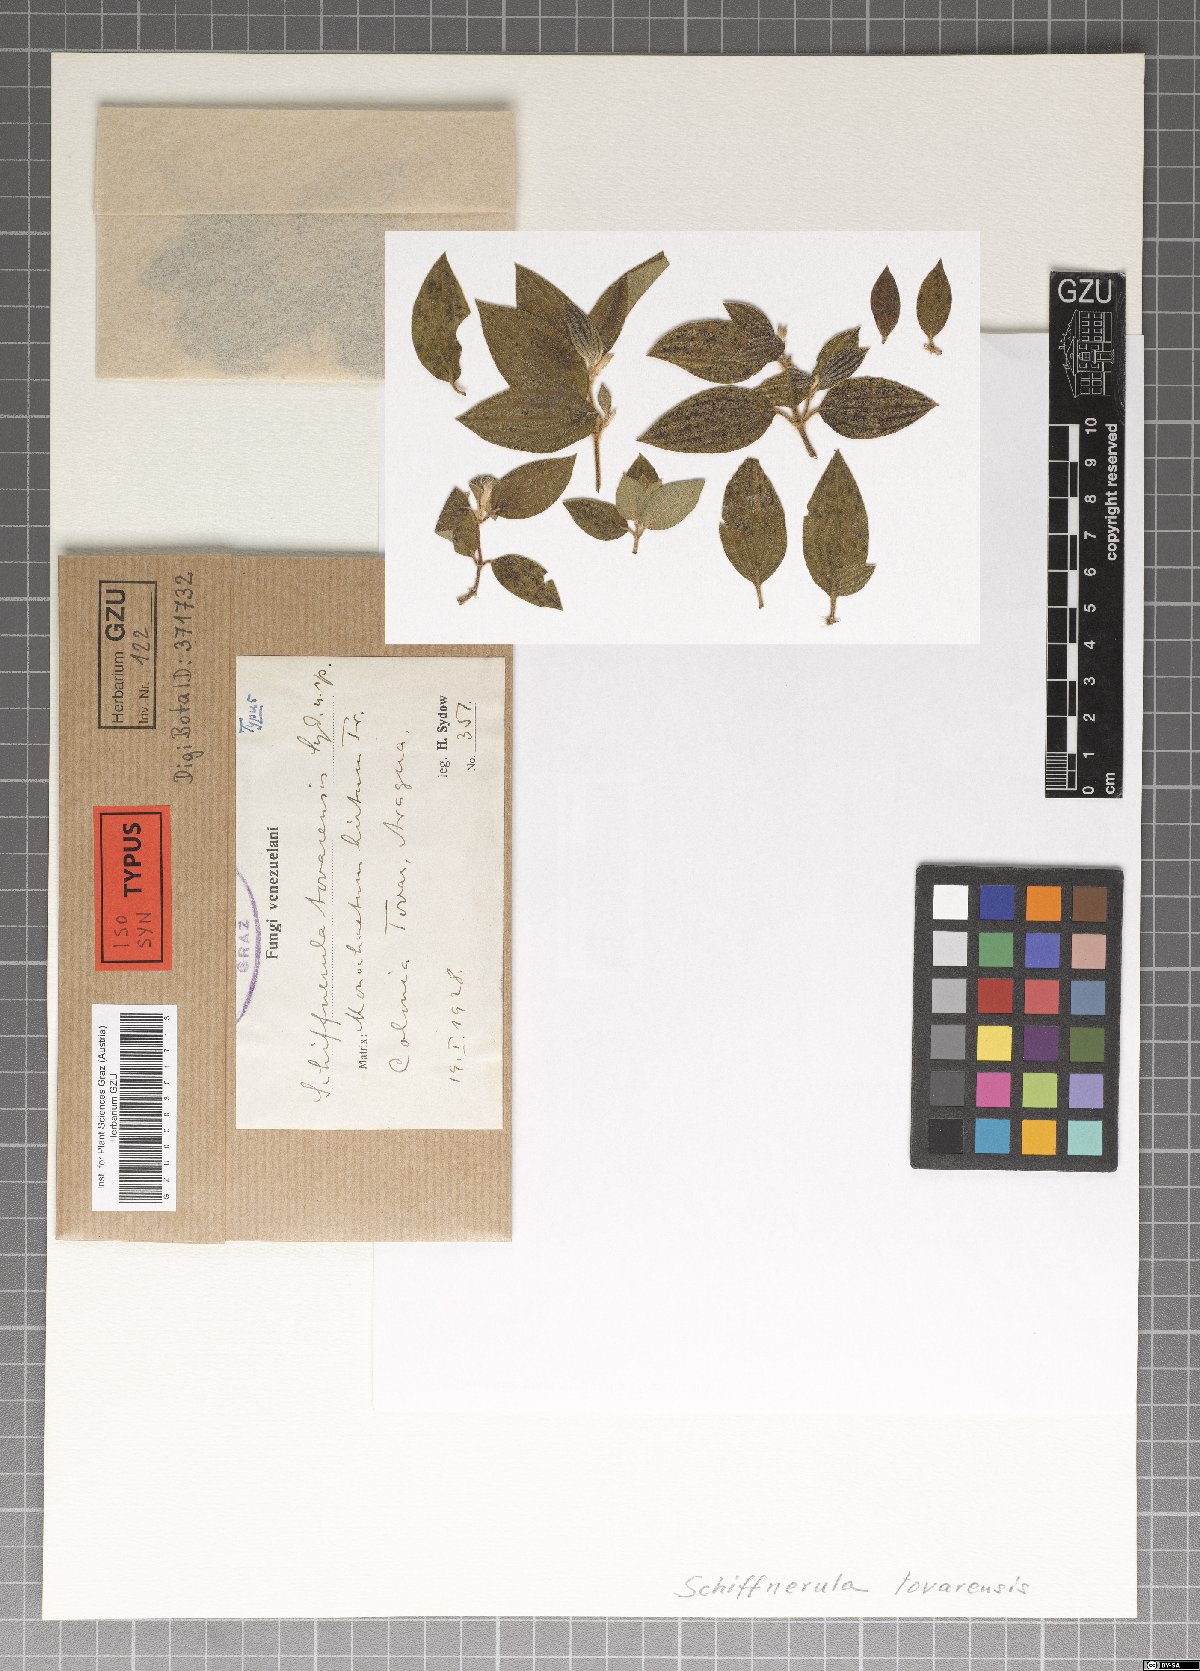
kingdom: Fungi
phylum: Ascomycota
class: Dothideomycetes
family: Englerulaceae
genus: Schiffnerula
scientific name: Schiffnerula tovarensis
